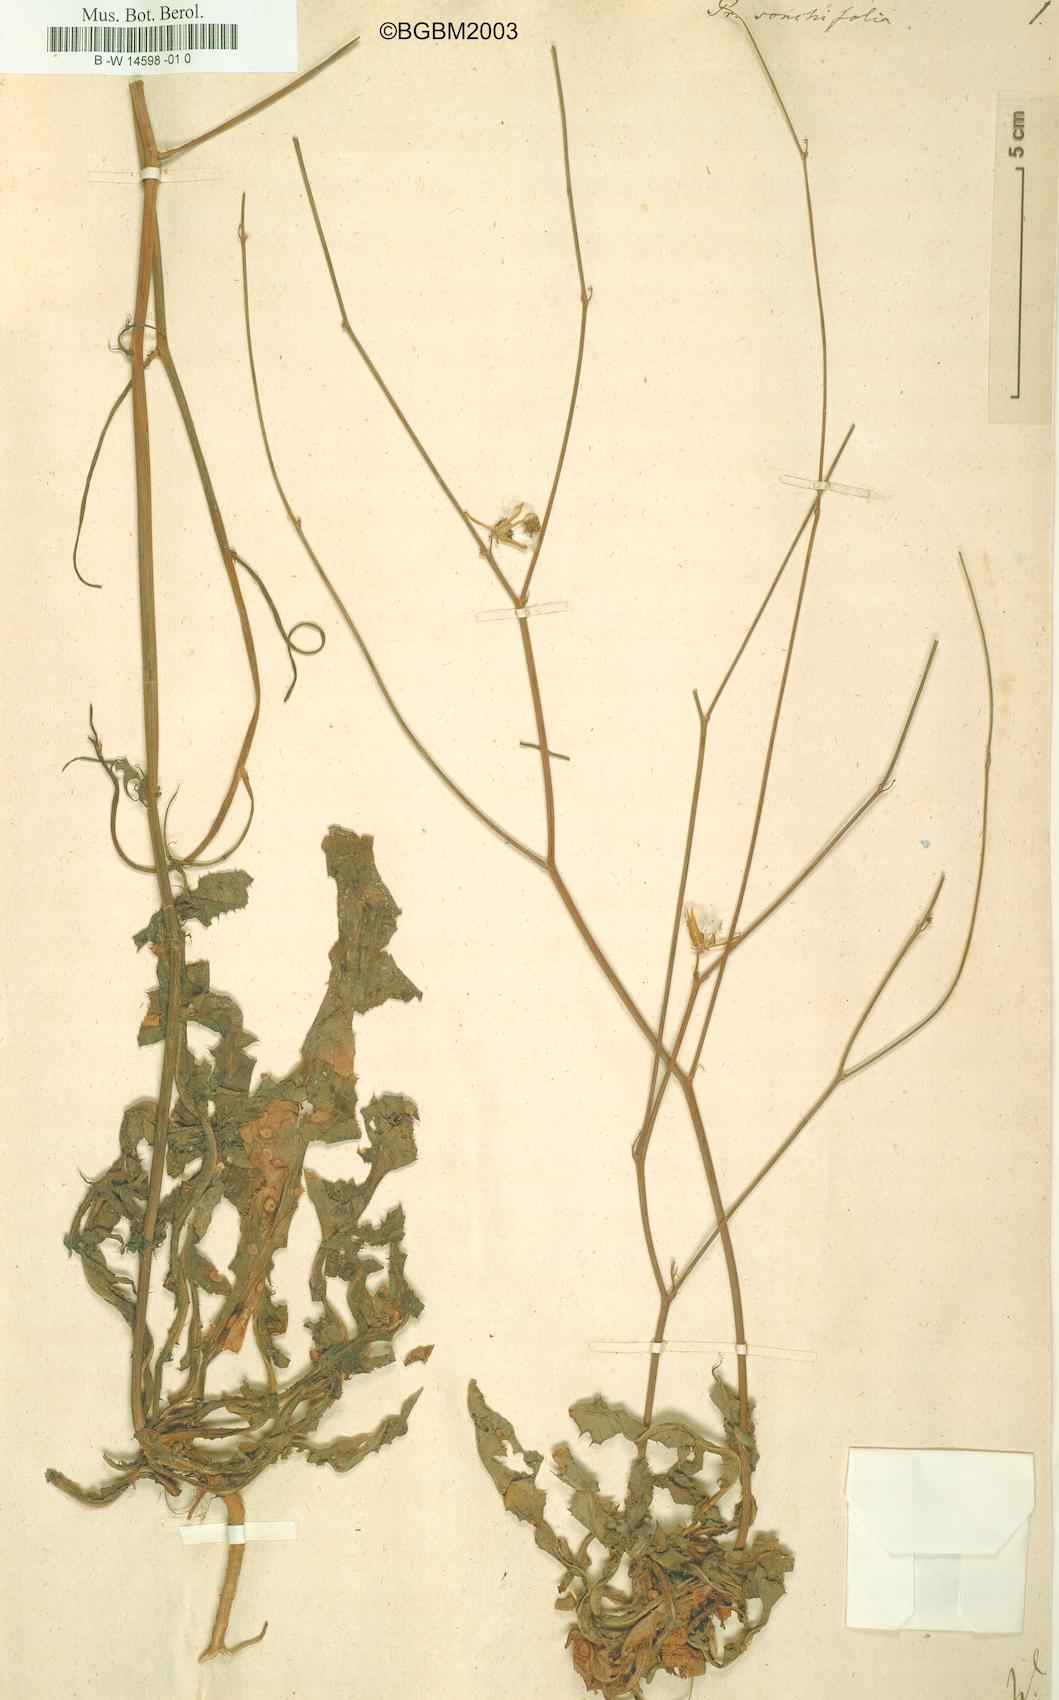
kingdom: Plantae
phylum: Tracheophyta
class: Magnoliopsida
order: Asterales
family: Asteraceae
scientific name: Asteraceae
